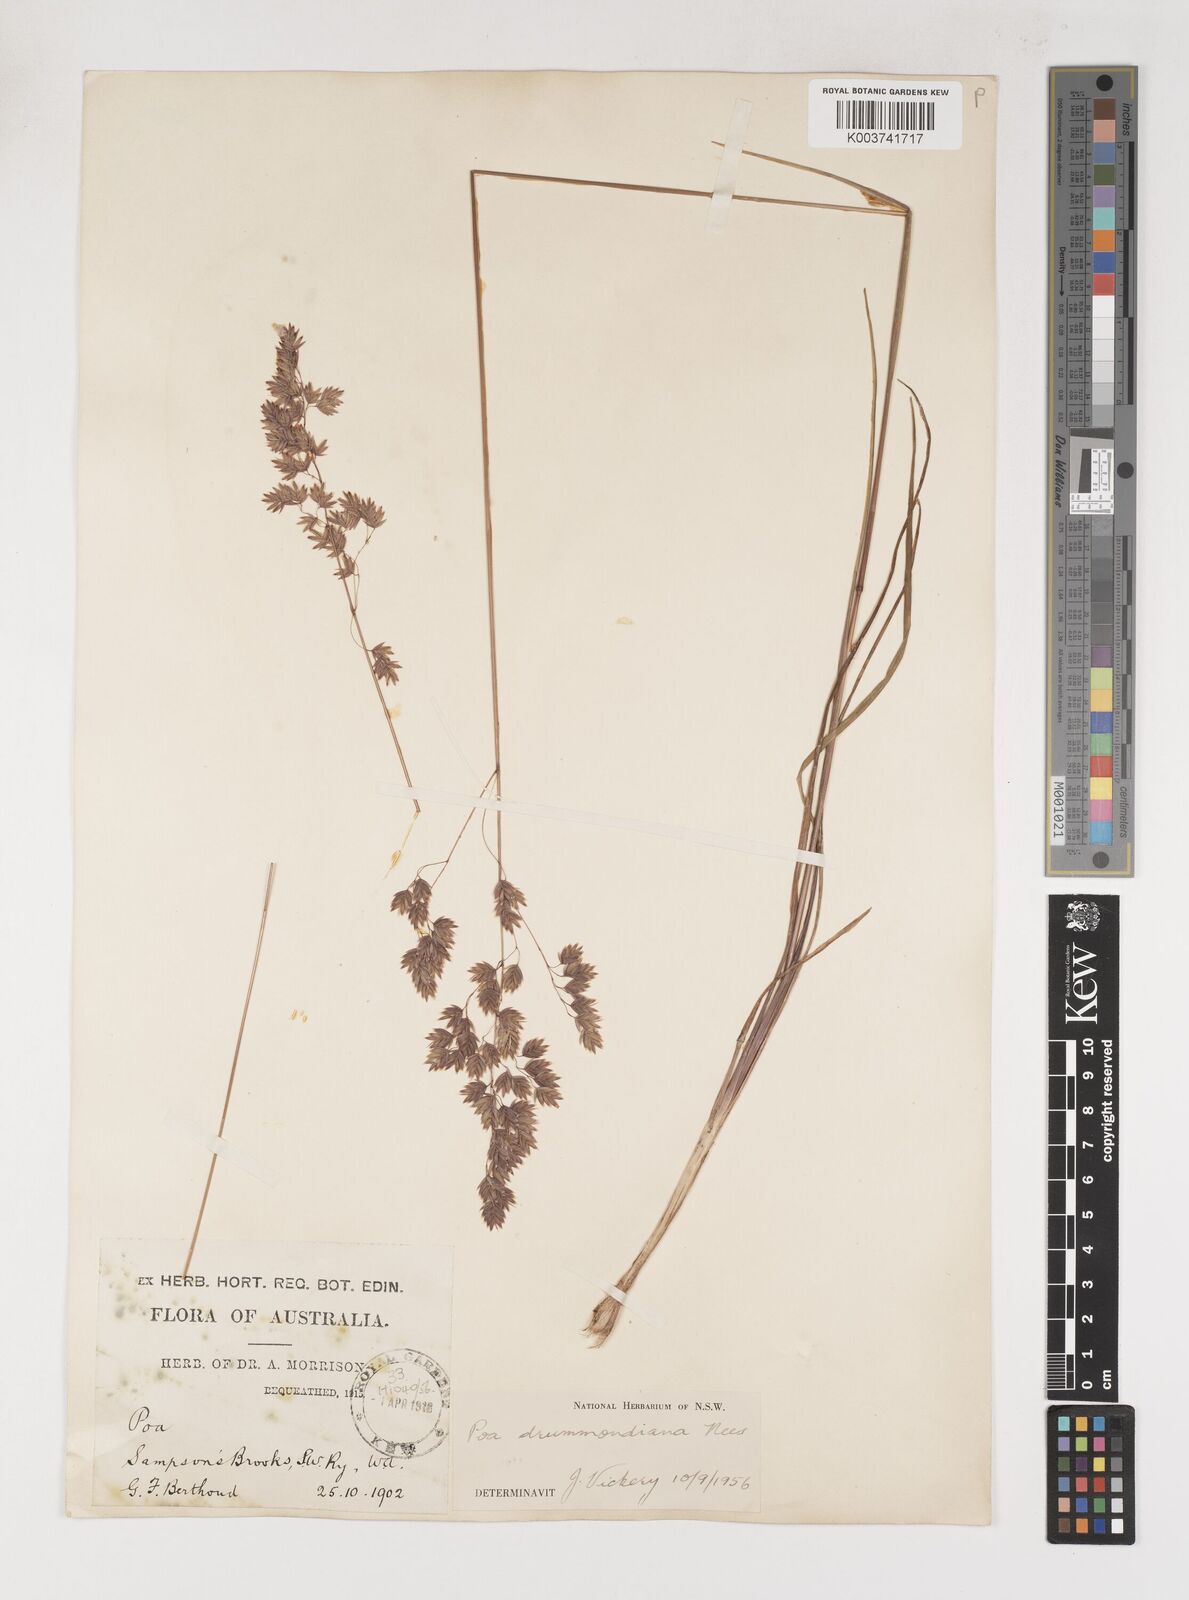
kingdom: Plantae
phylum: Tracheophyta
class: Liliopsida
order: Poales
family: Poaceae
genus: Poa
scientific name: Poa drummondiana
